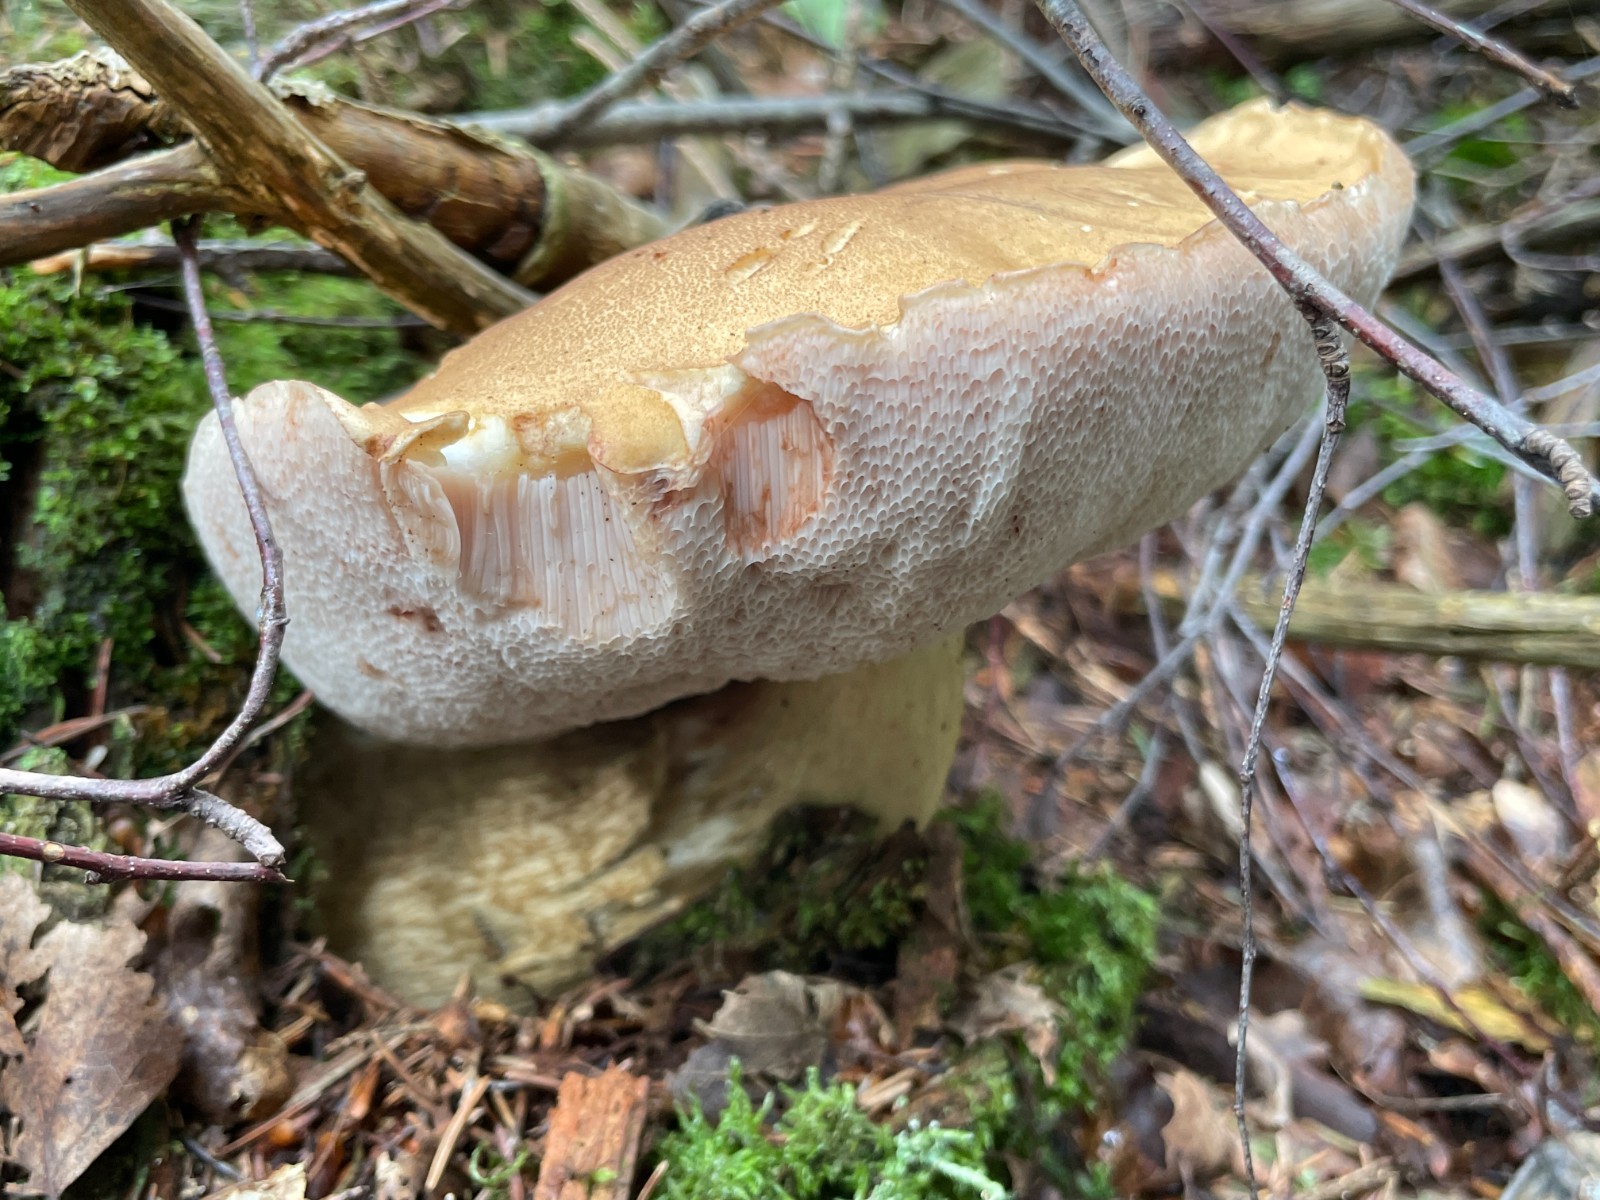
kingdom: Fungi
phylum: Basidiomycota
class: Agaricomycetes
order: Boletales
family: Boletaceae
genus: Tylopilus
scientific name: Tylopilus felleus
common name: galderørhat
